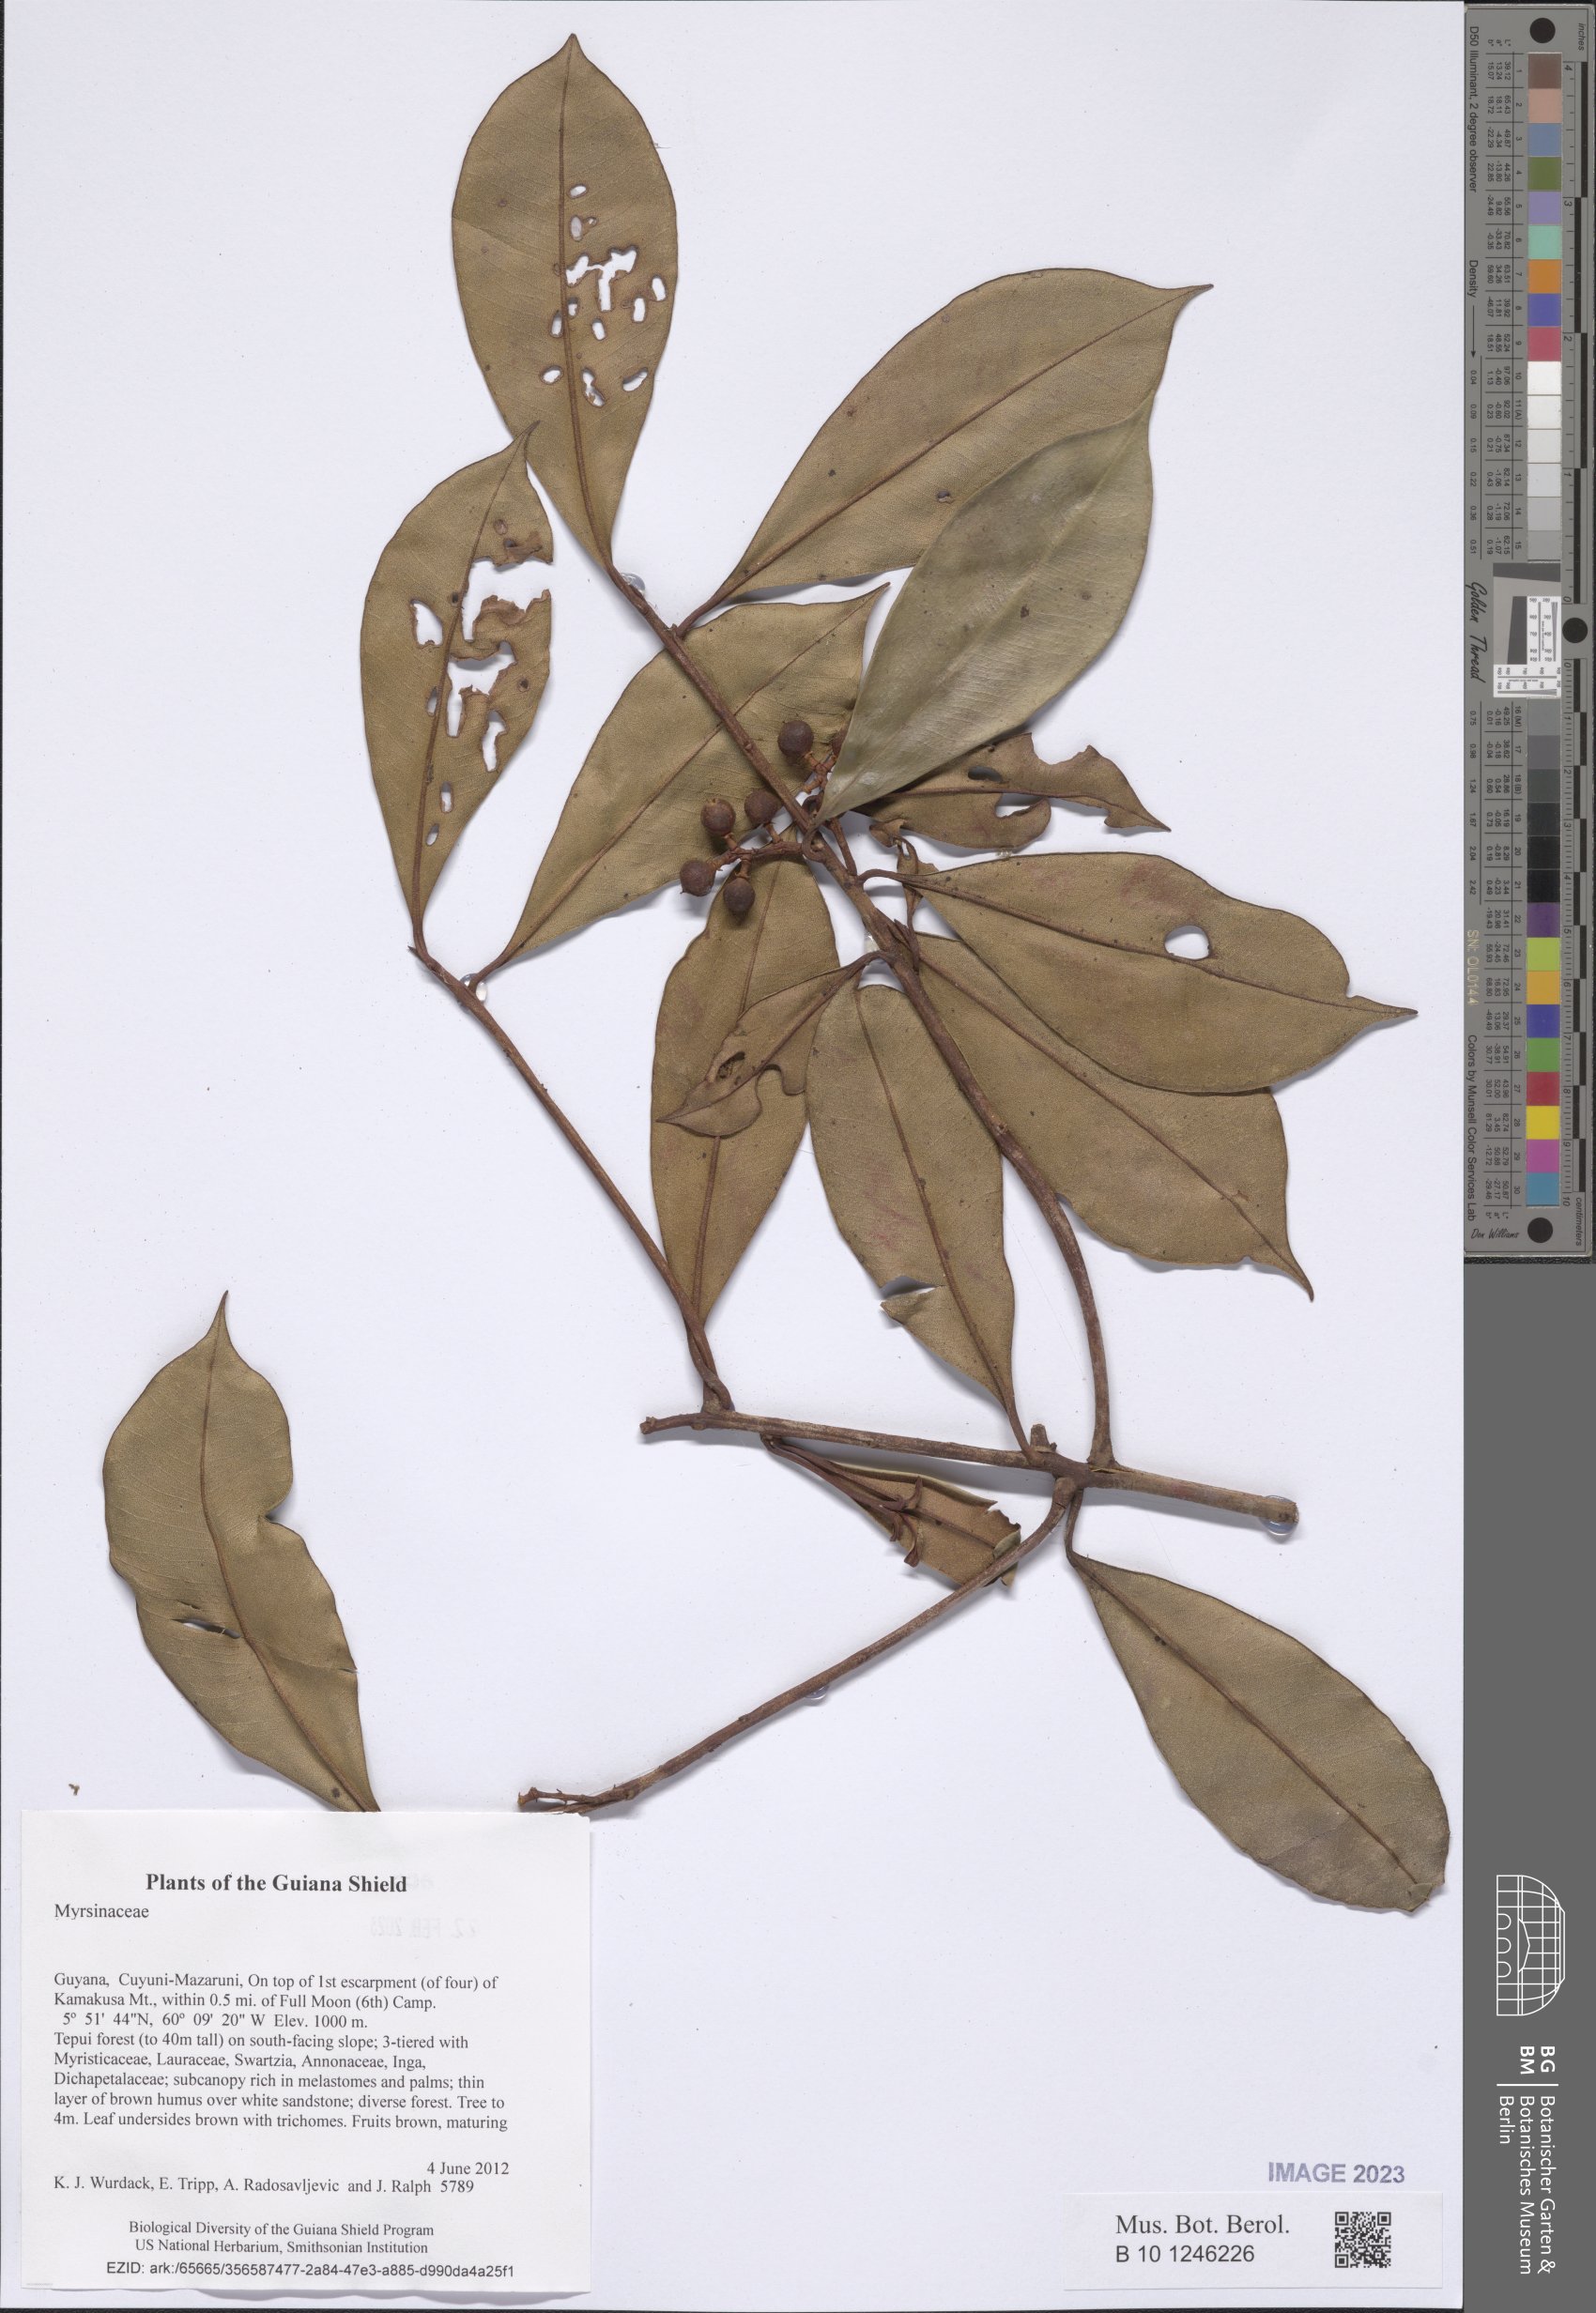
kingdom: Plantae
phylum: Tracheophyta
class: Magnoliopsida
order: Ericales
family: Primulaceae
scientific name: Primulaceae
